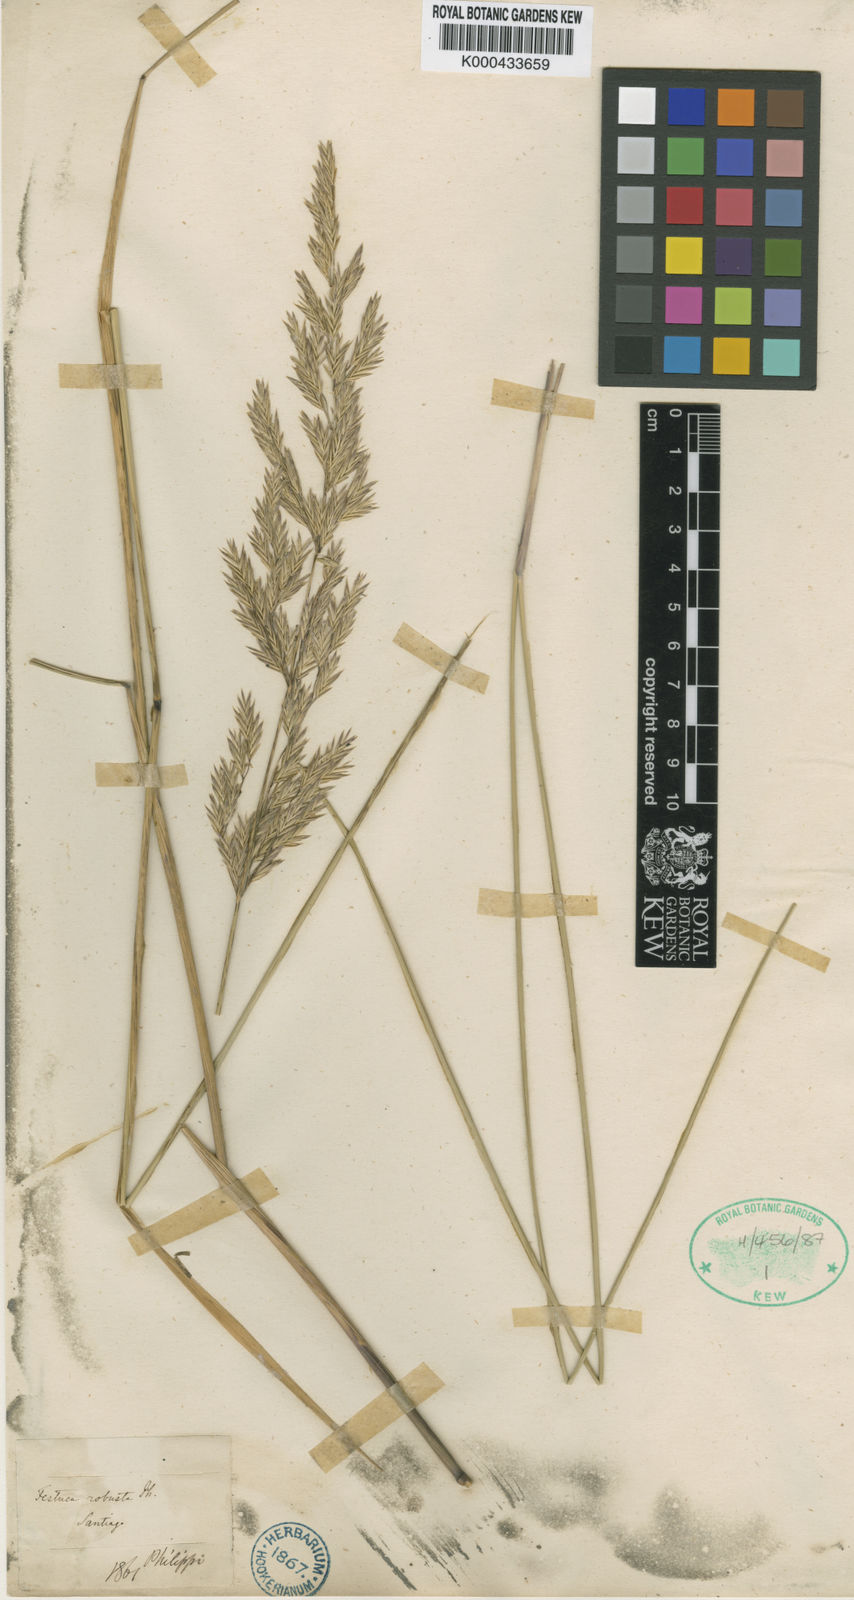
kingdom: Plantae
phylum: Tracheophyta
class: Liliopsida
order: Poales
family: Poaceae
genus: Festuca
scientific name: Festuca acanthophylla
